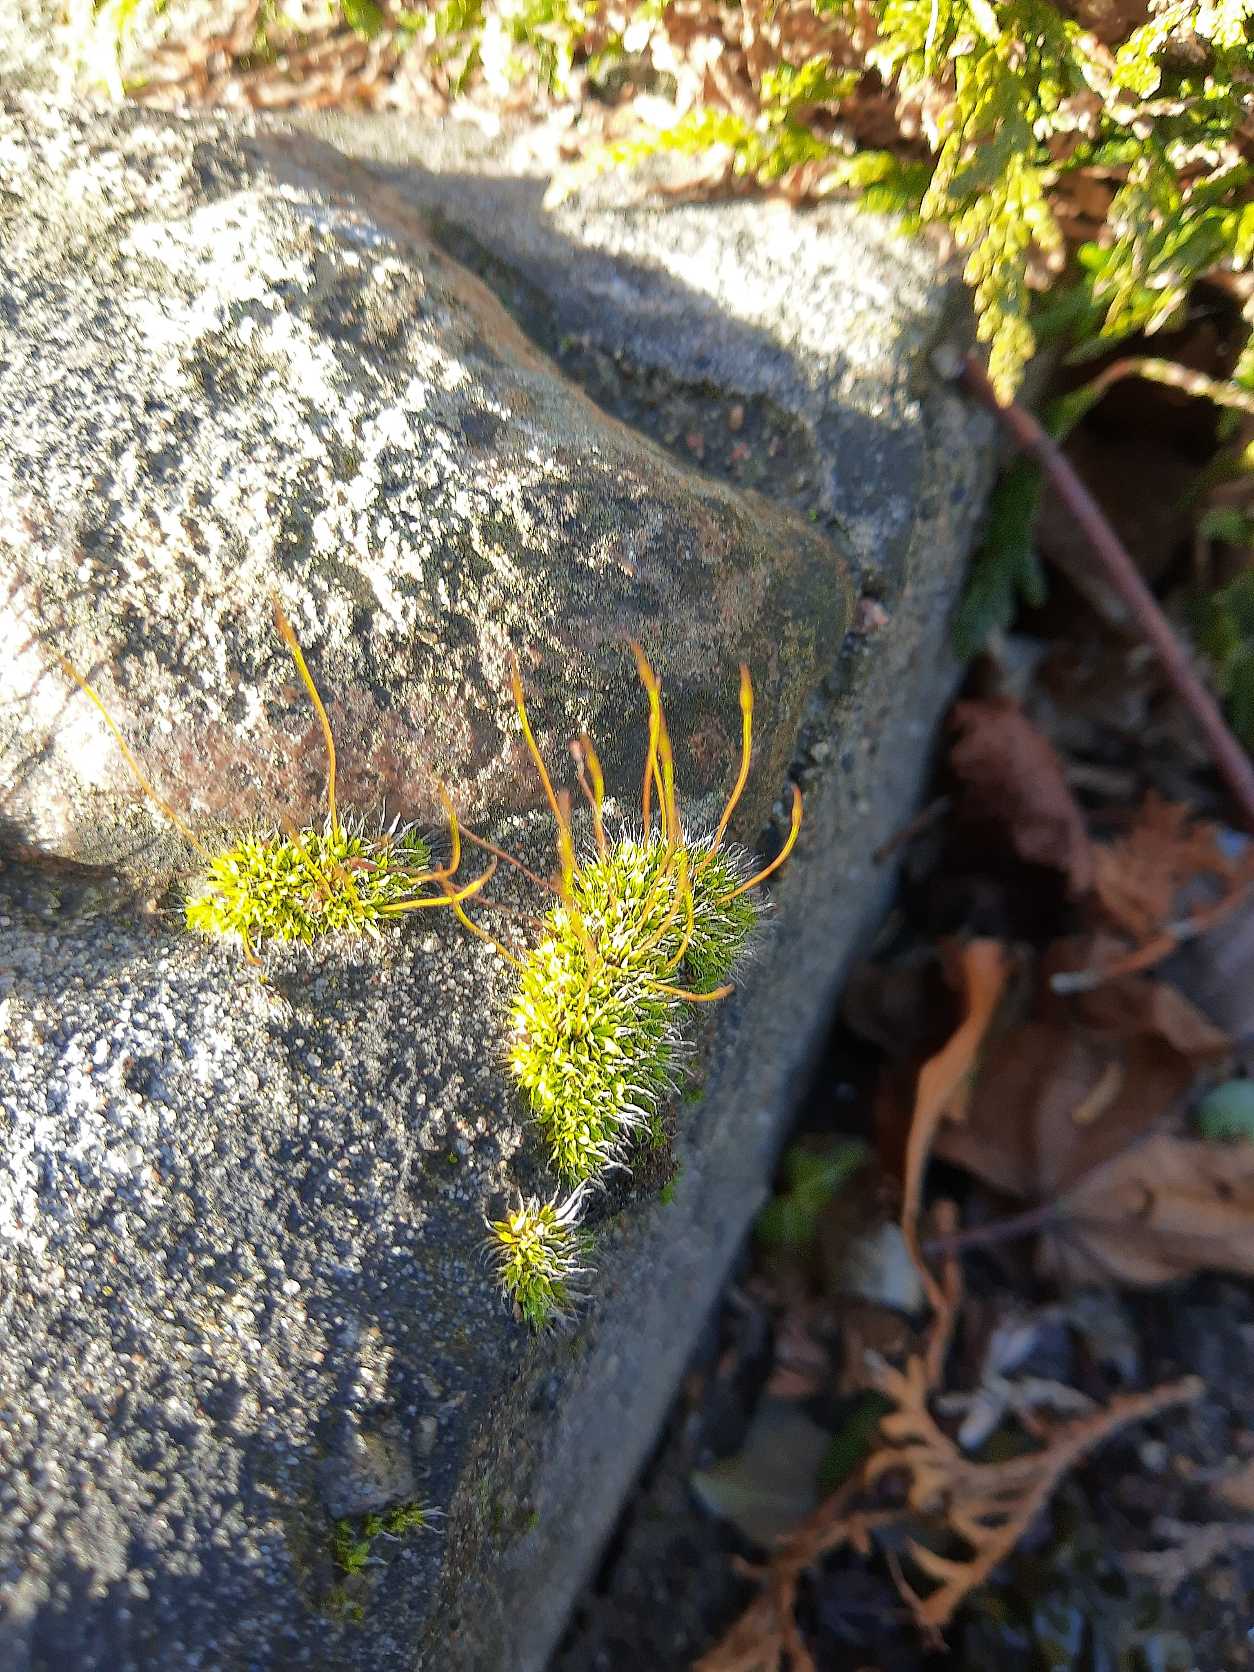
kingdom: Plantae
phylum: Bryophyta
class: Bryopsida
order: Pottiales
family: Pottiaceae
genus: Tortula
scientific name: Tortula muralis
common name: Mur-snotand
